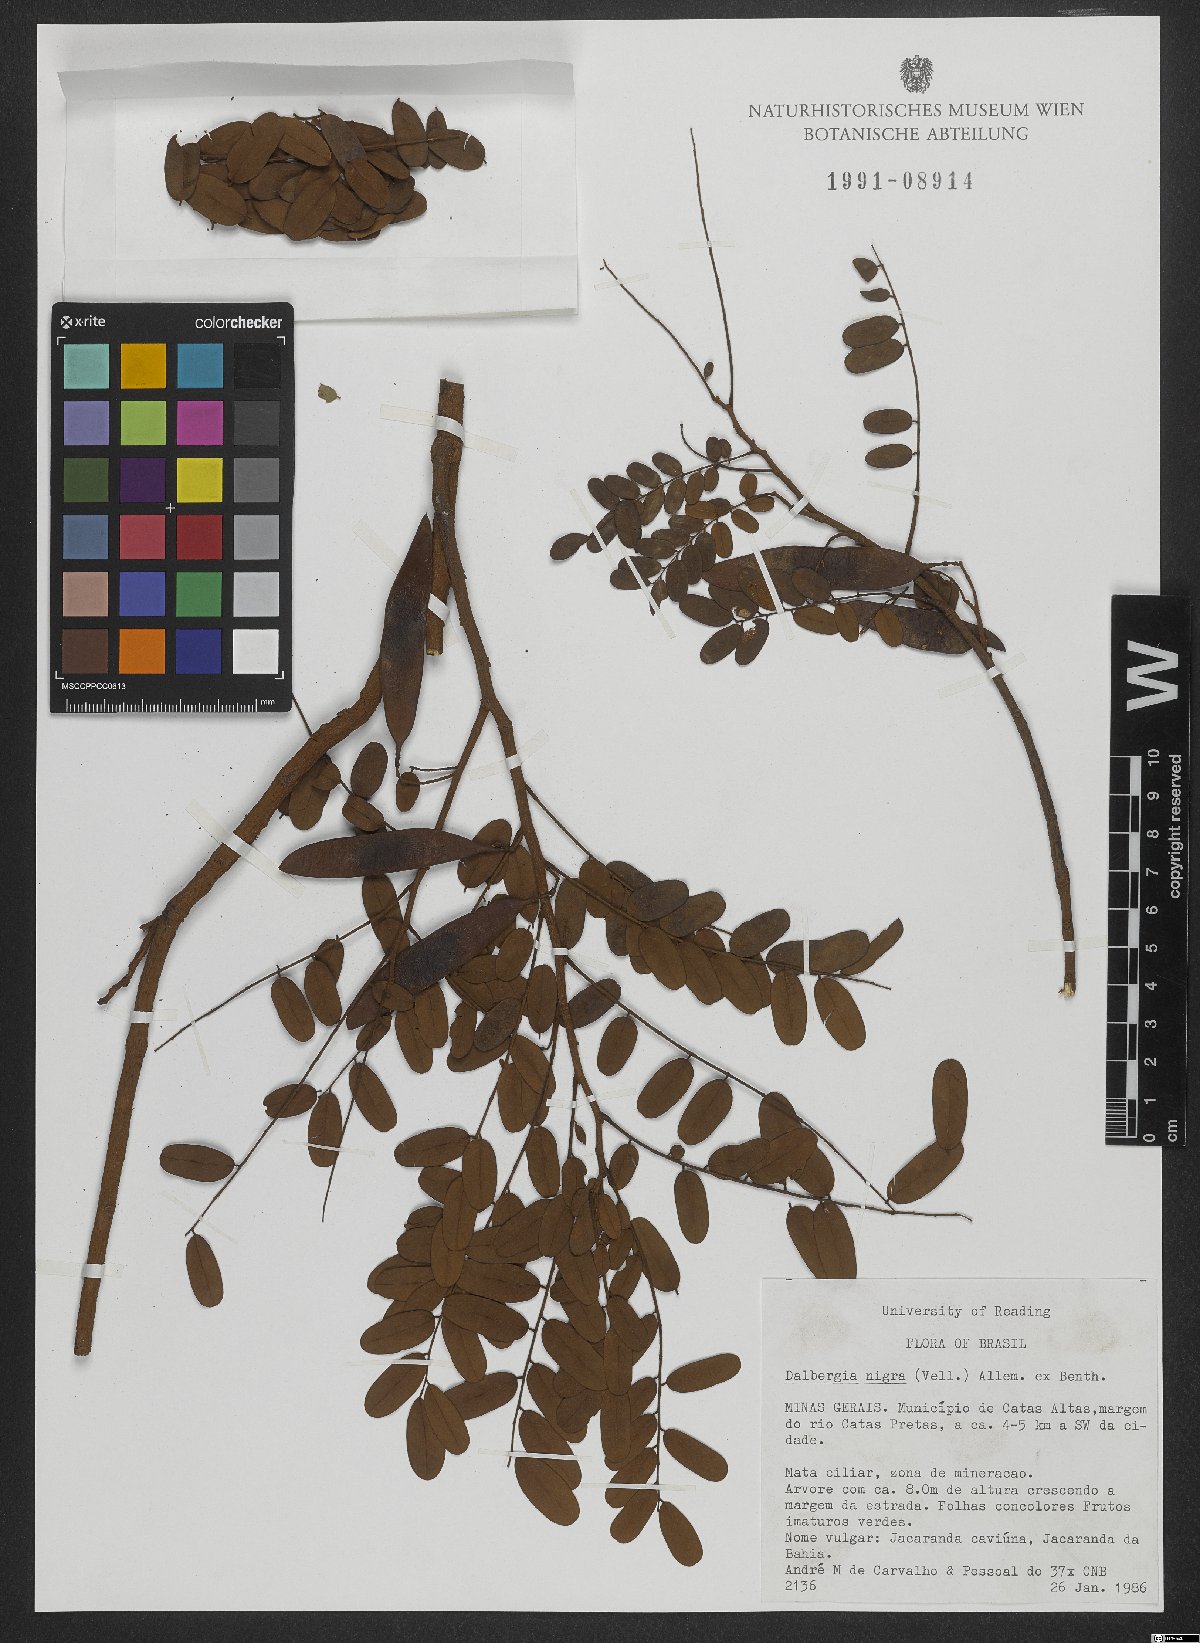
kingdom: Plantae
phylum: Tracheophyta
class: Magnoliopsida
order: Fabales
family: Fabaceae
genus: Dalbergia
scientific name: Dalbergia nigra
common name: Bahia rosewood
